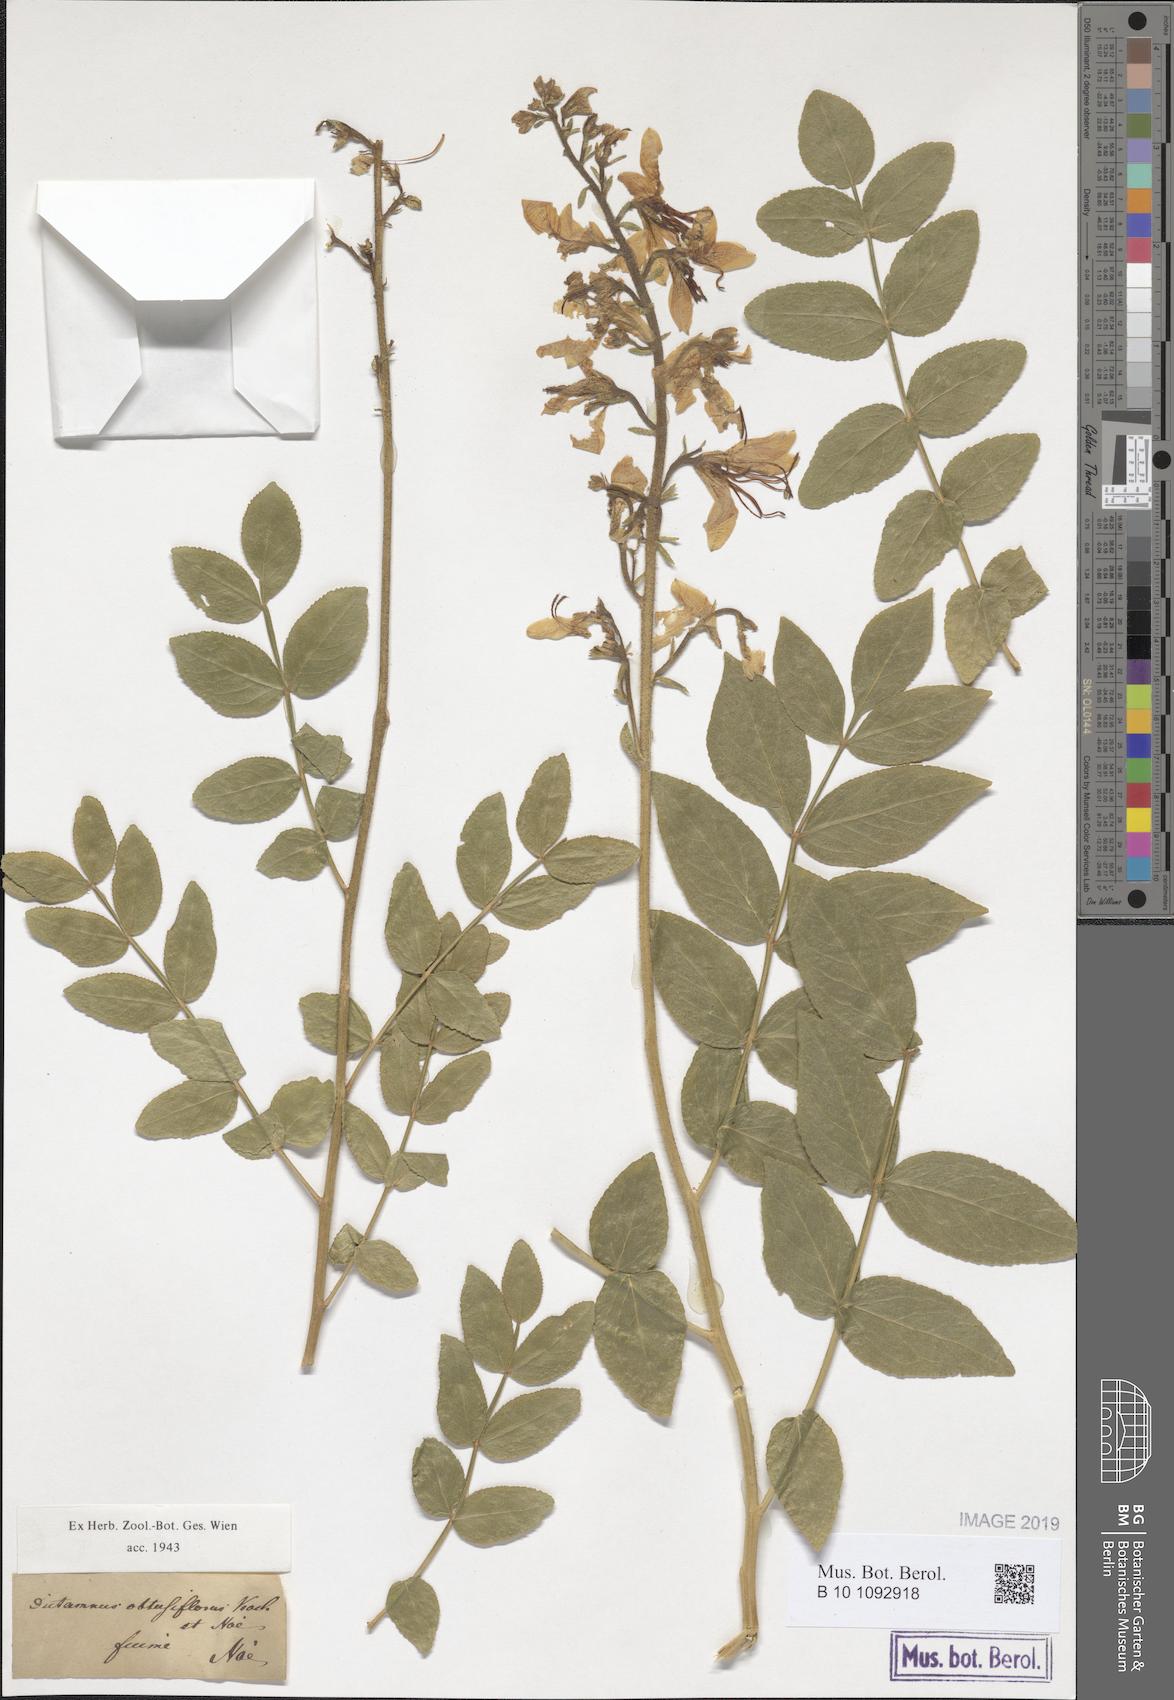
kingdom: Plantae
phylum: Tracheophyta
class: Magnoliopsida
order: Sapindales
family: Rutaceae
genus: Dictamnus
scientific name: Dictamnus albus
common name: Gasplant
